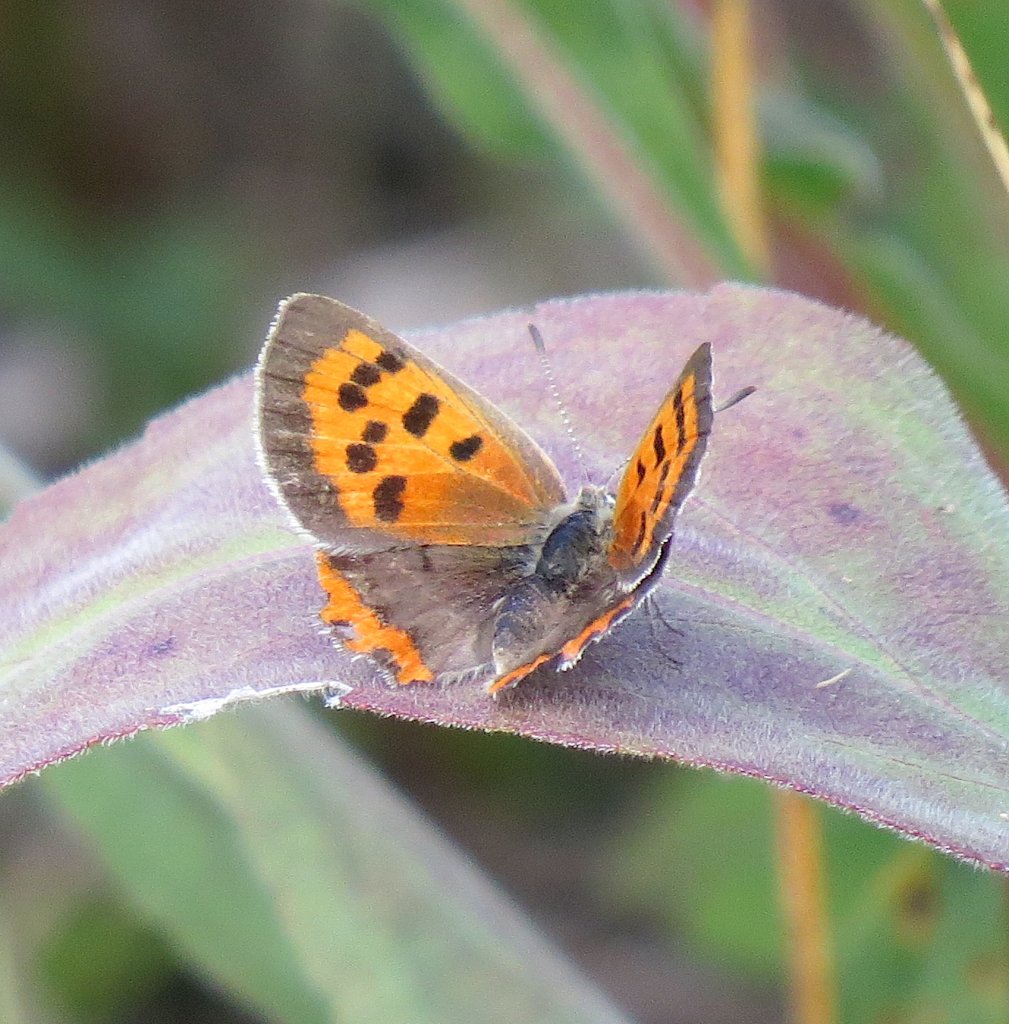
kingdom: Animalia
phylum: Arthropoda
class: Insecta
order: Lepidoptera
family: Lycaenidae
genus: Lycaena
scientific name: Lycaena phlaeas
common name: American Copper
